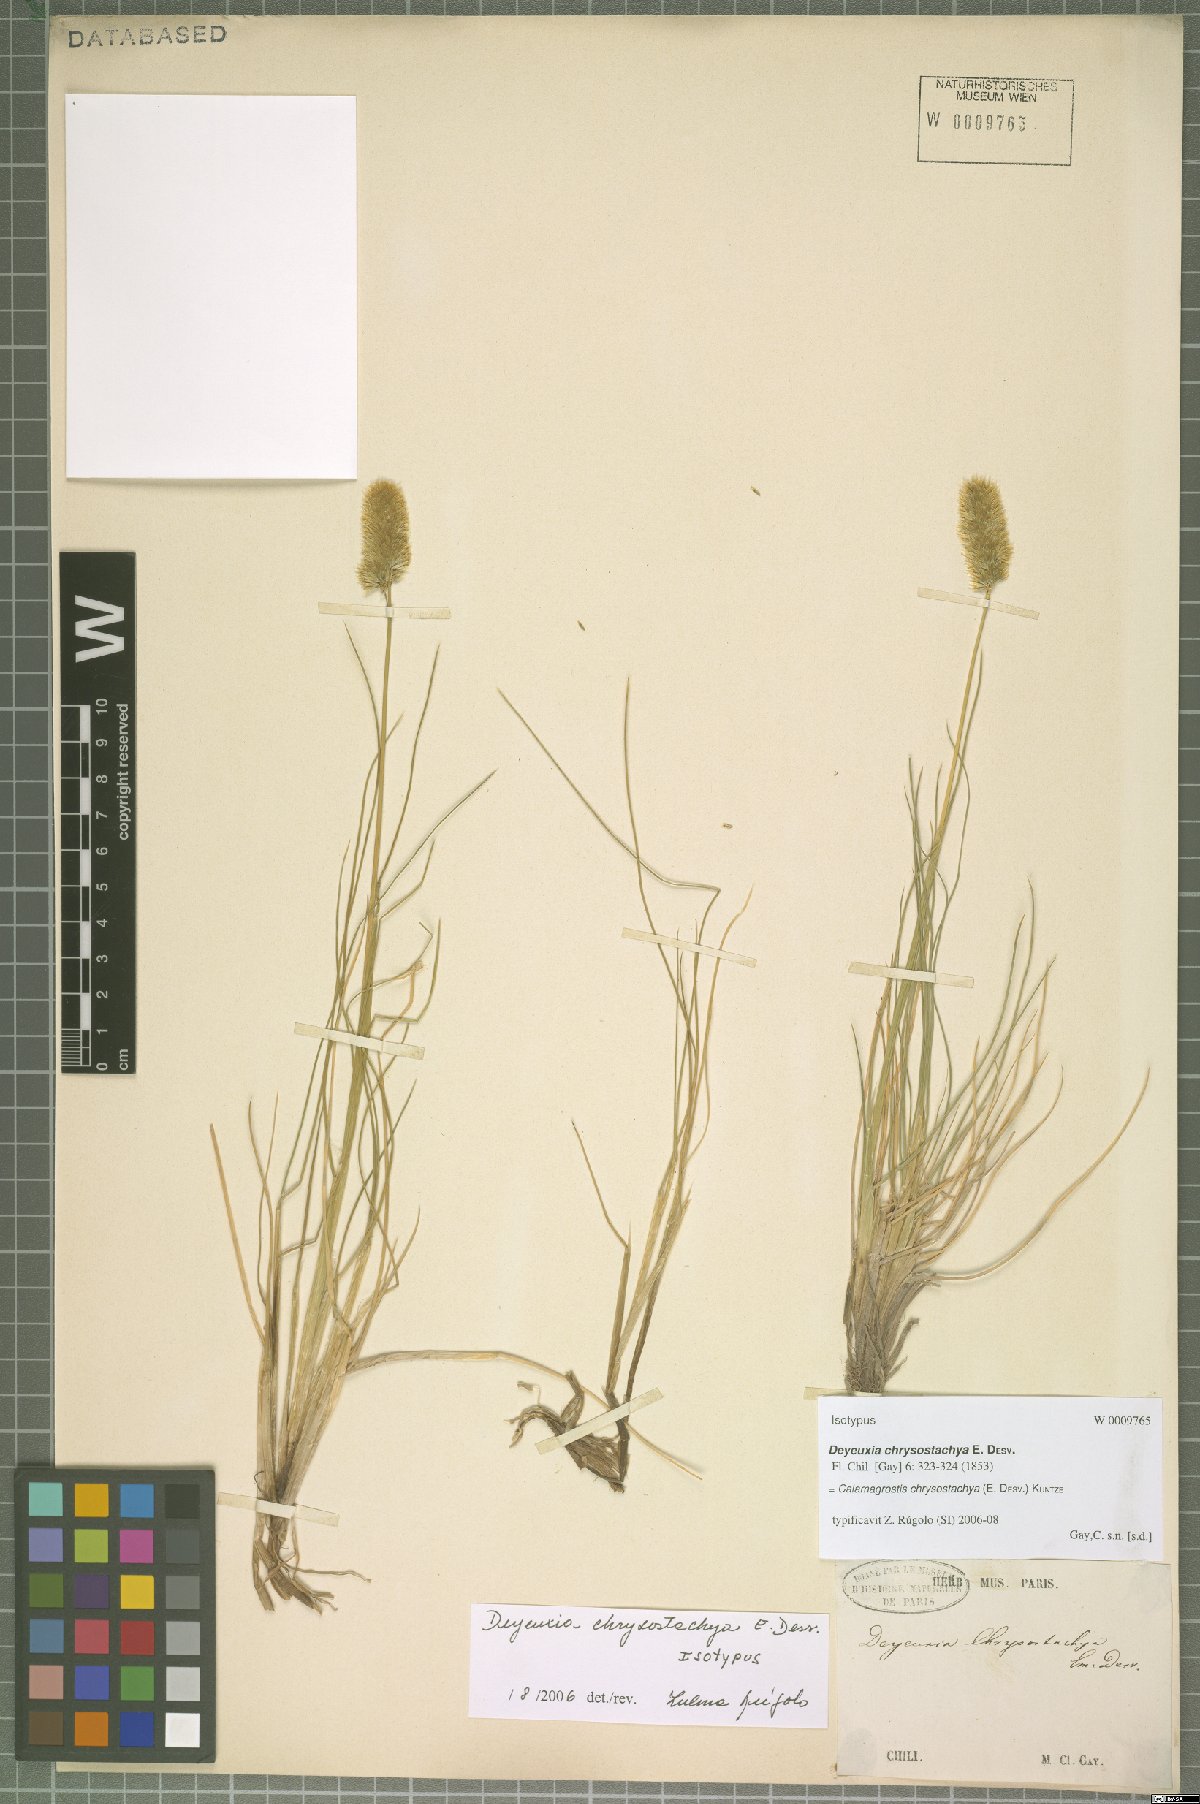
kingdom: Plantae
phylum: Tracheophyta
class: Liliopsida
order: Poales
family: Poaceae
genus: Deschampsia
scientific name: Deschampsia chrysostachya
